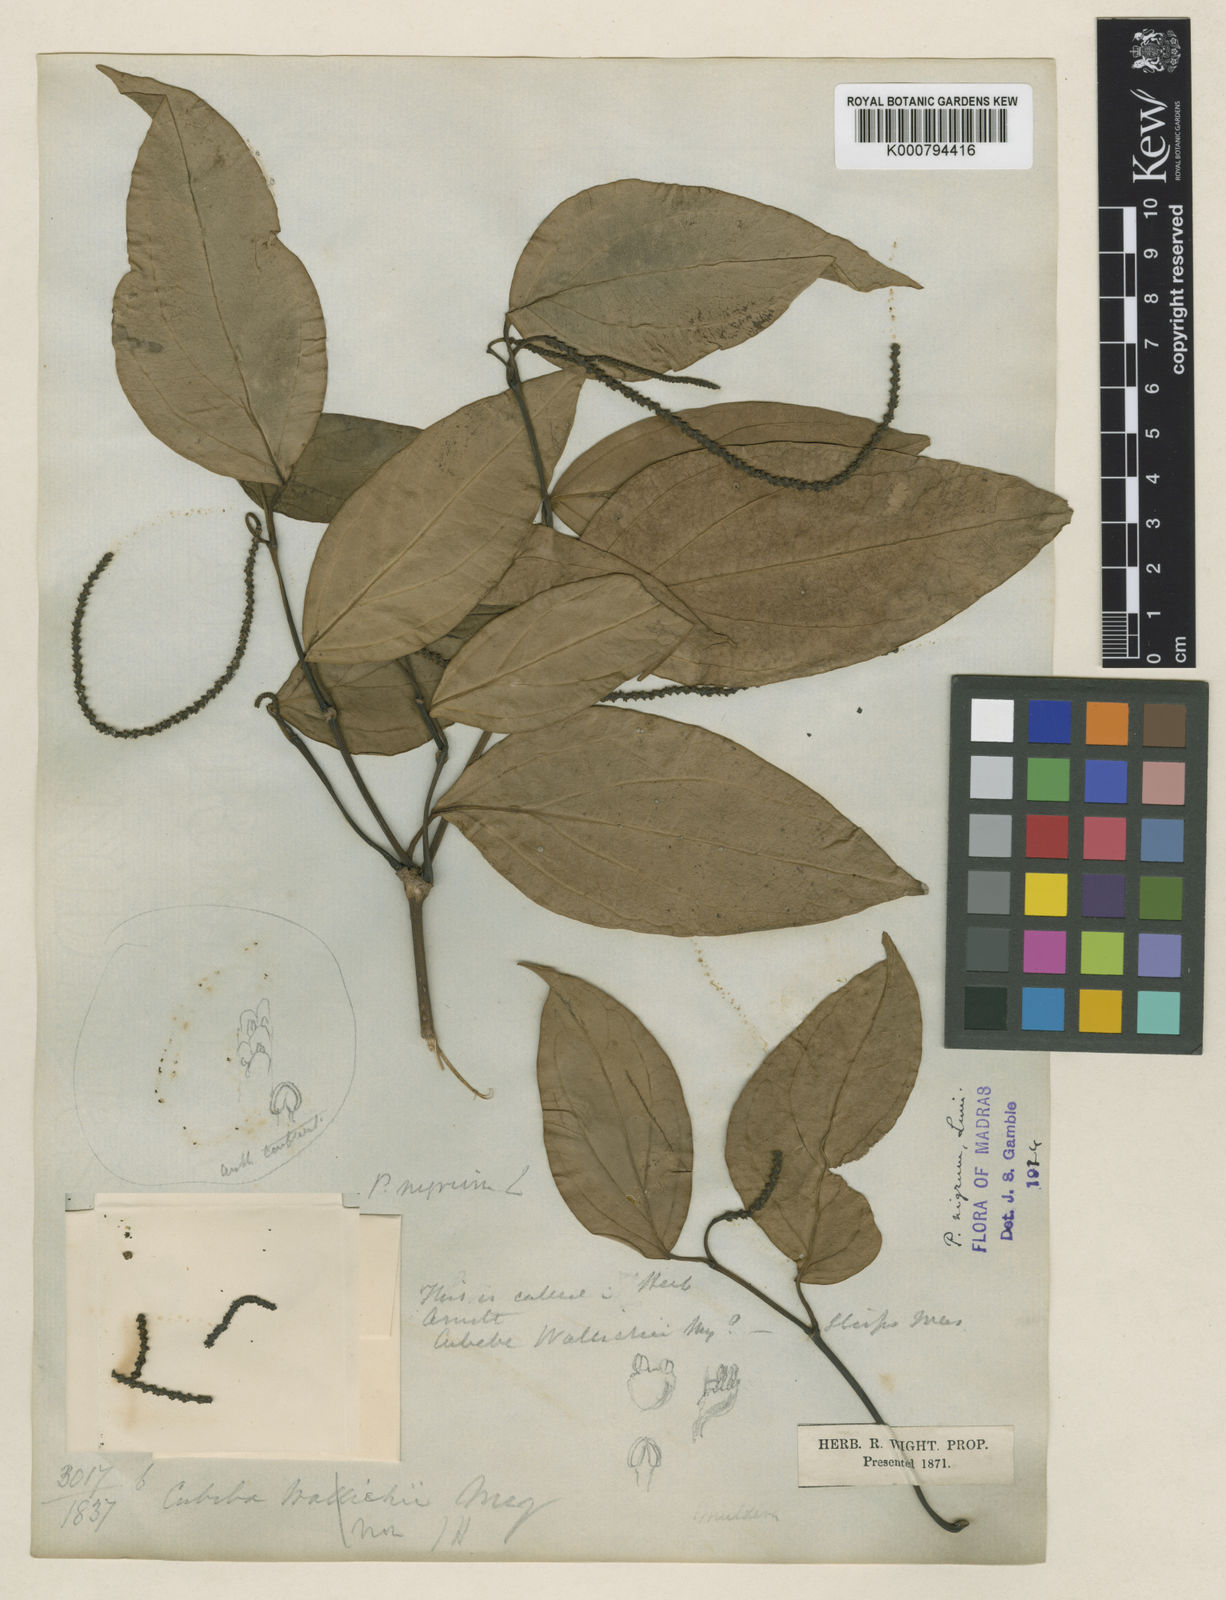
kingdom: Plantae
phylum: Tracheophyta
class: Magnoliopsida
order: Piperales
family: Piperaceae
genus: Piper
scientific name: Piper nigrum
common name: Black pepper
